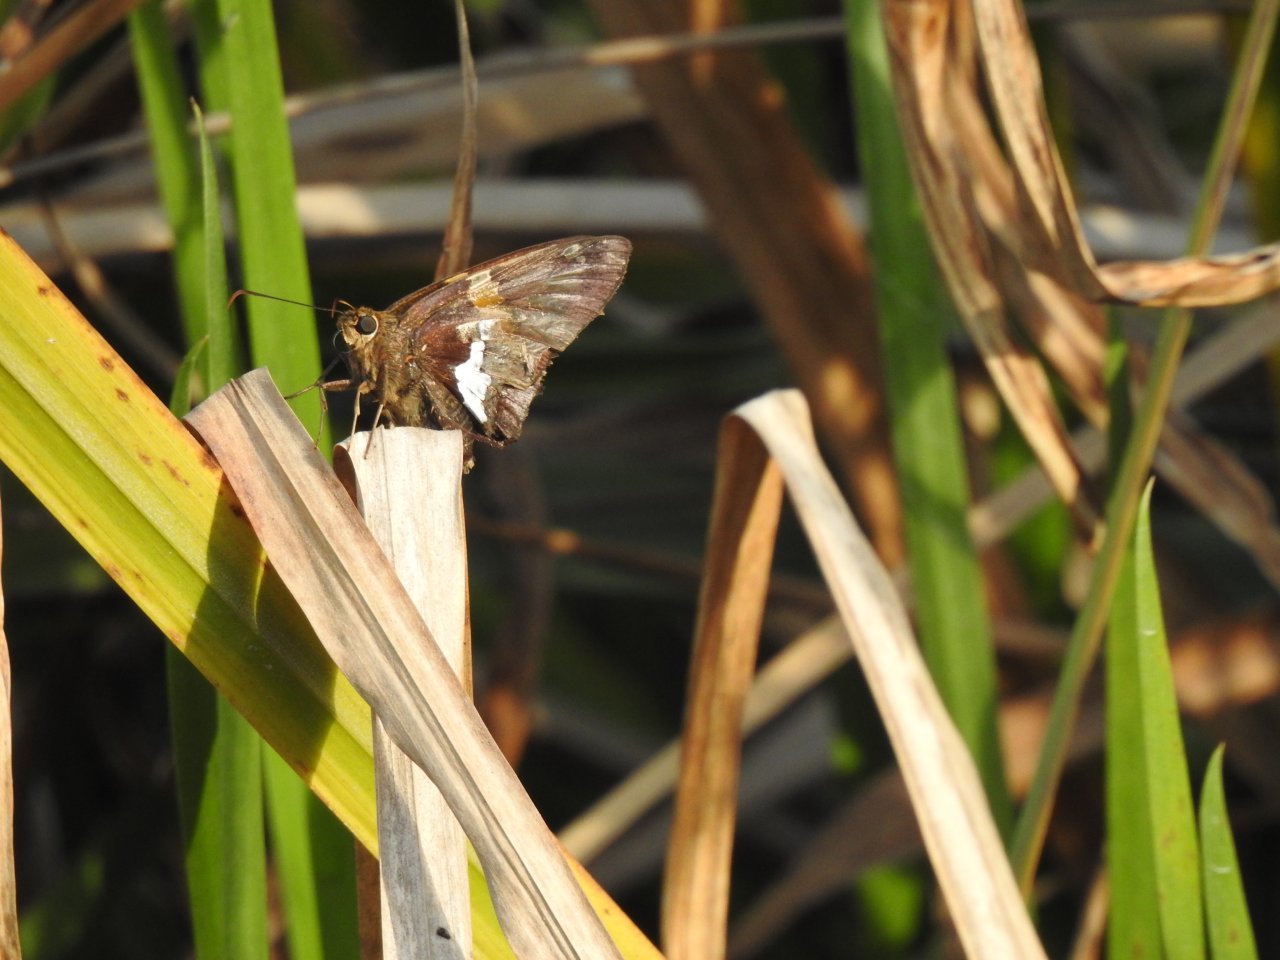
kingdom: Animalia
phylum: Arthropoda
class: Insecta
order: Lepidoptera
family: Hesperiidae
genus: Epargyreus
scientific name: Epargyreus clarus
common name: Silver-spotted Skipper
